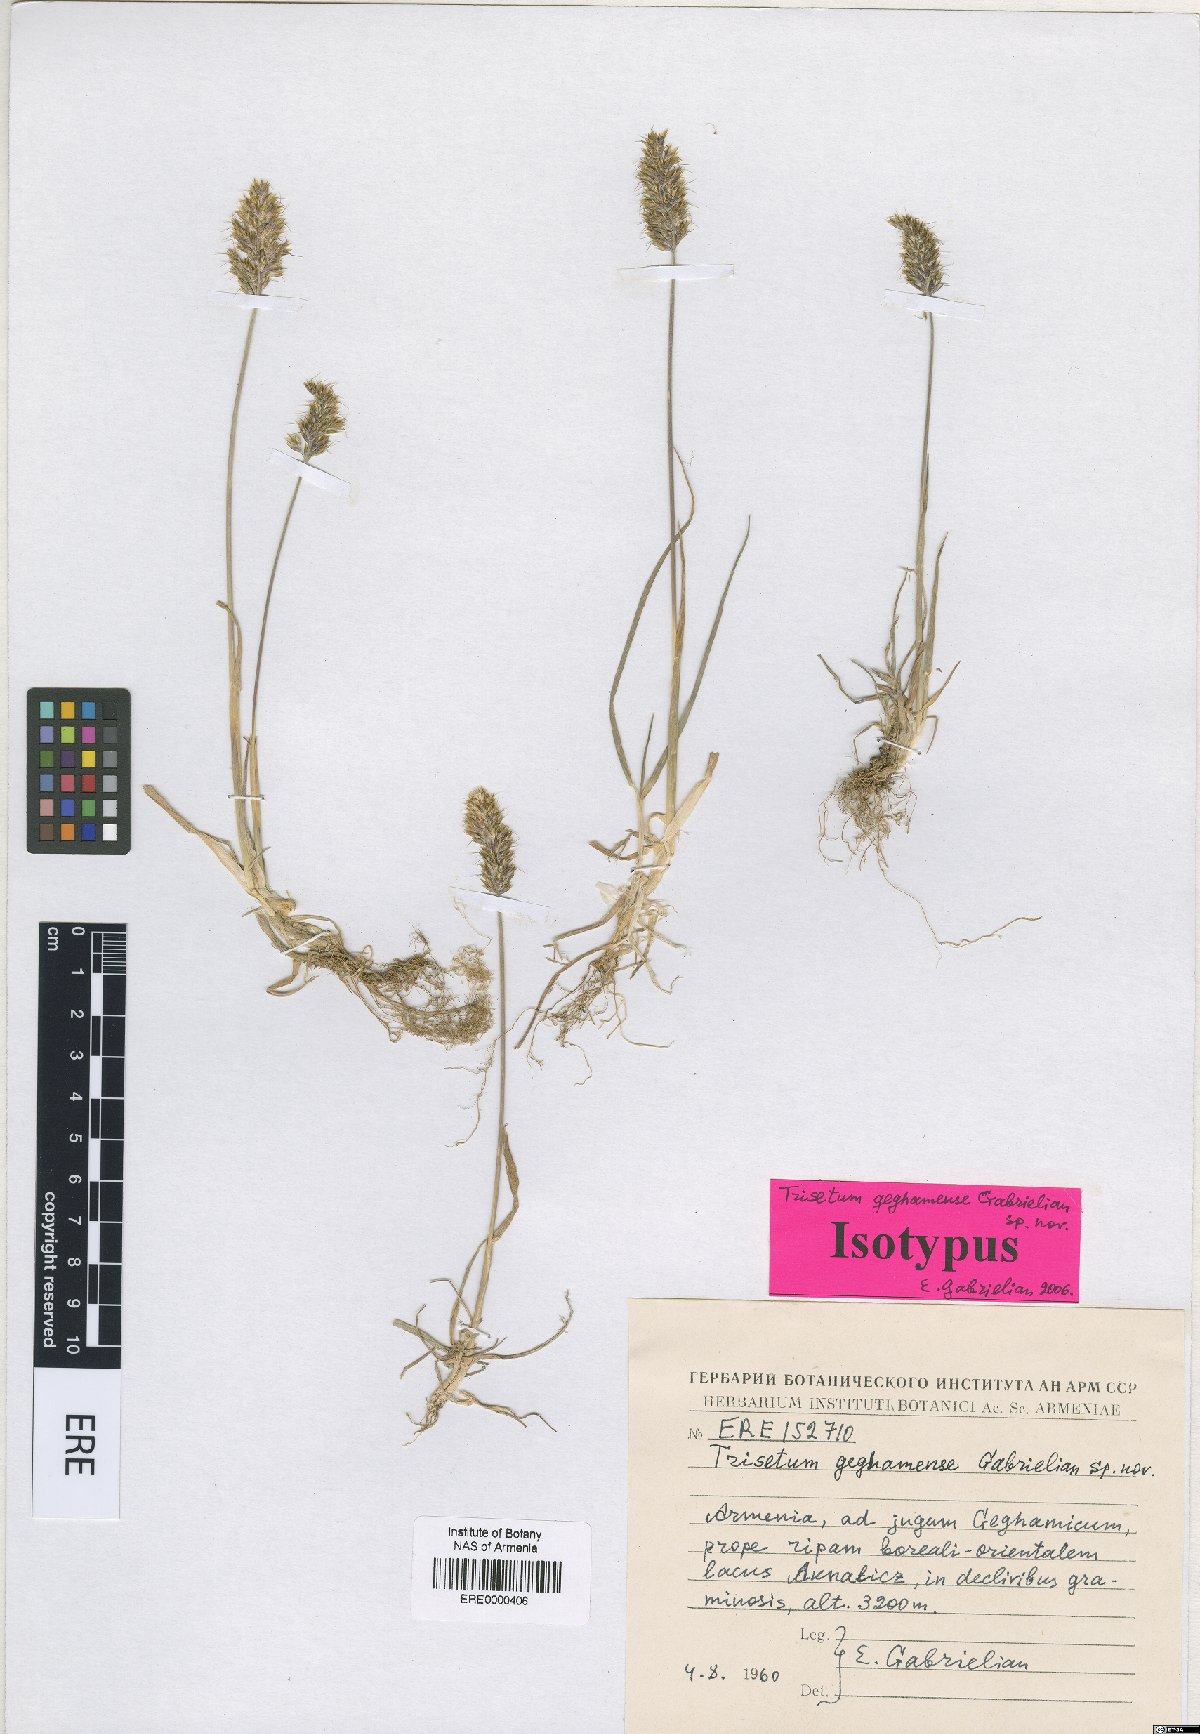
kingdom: Plantae
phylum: Tracheophyta
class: Liliopsida
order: Poales
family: Poaceae
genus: Koeleria
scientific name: Koeleria spicata
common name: Mountain trisetum
